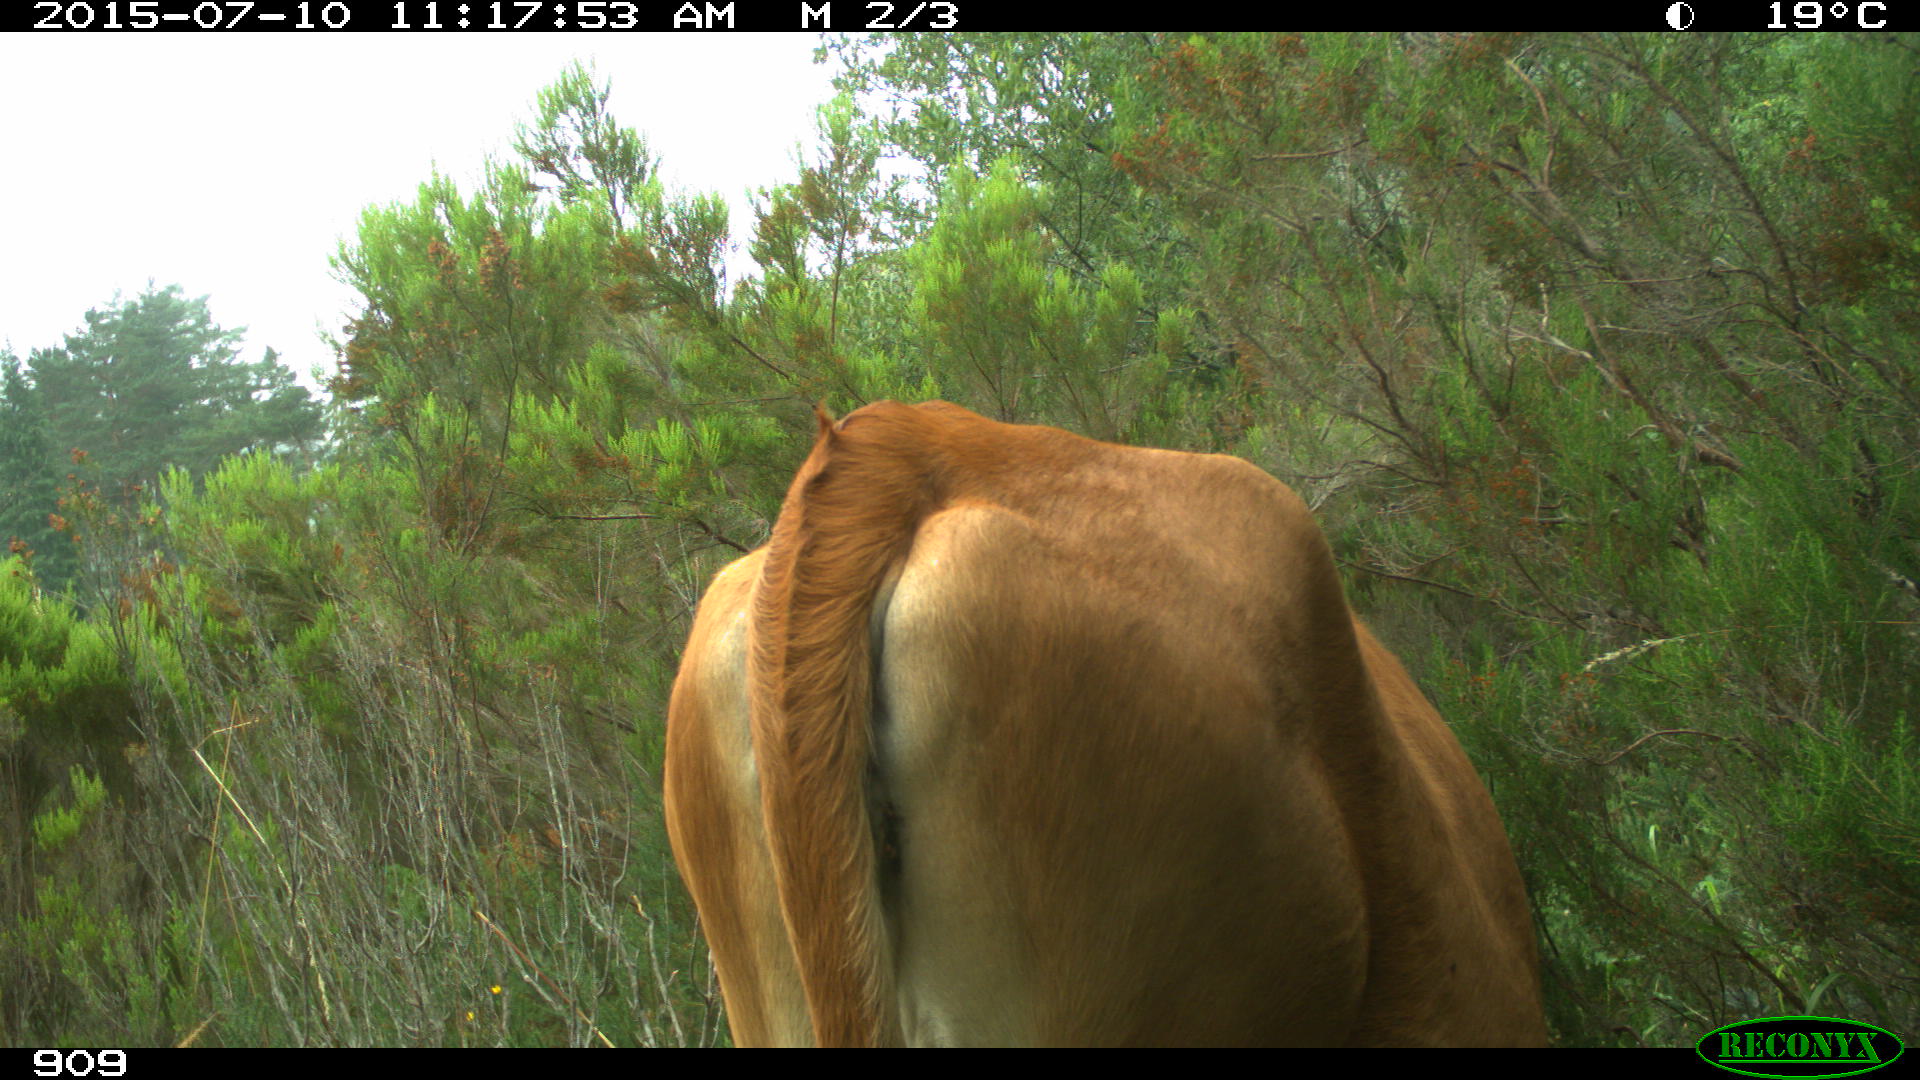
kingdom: Animalia
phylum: Chordata
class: Mammalia
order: Artiodactyla
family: Bovidae
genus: Bos
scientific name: Bos taurus
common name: Domesticated cattle
